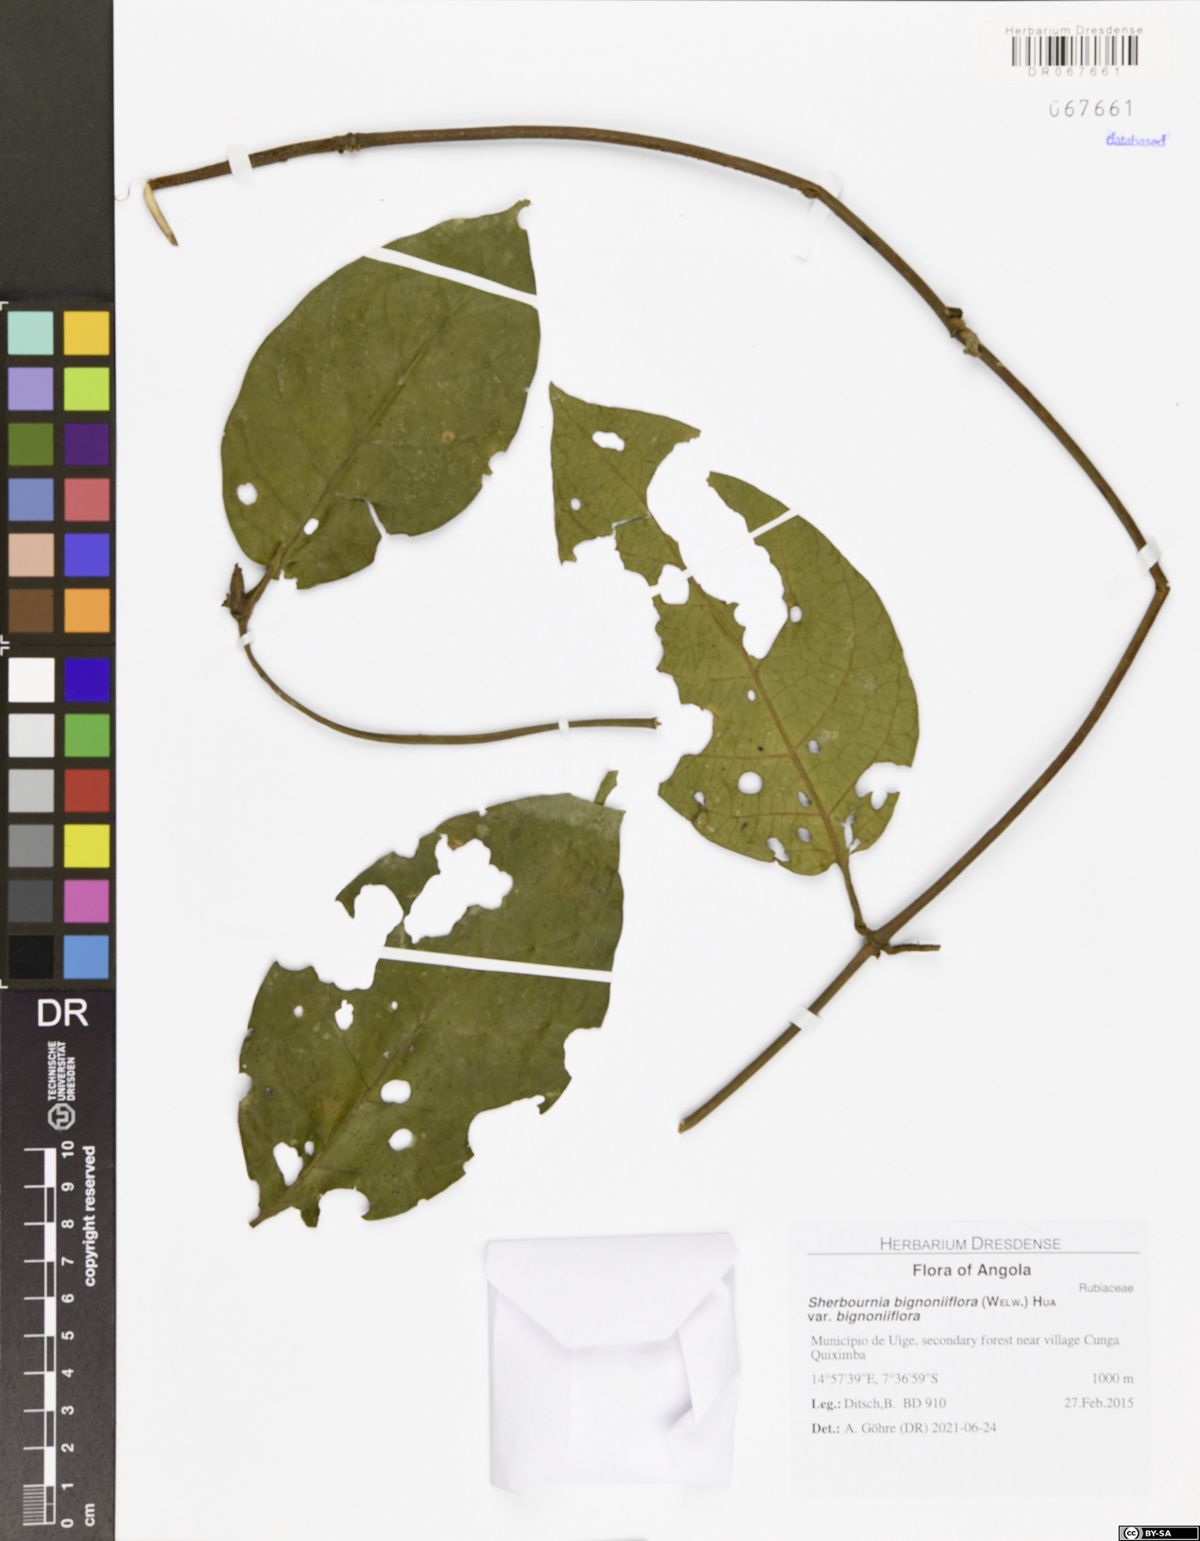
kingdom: Plantae
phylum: Tracheophyta
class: Magnoliopsida
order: Gentianales
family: Rubiaceae
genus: Sherbournia
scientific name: Sherbournia bignoniiflora
